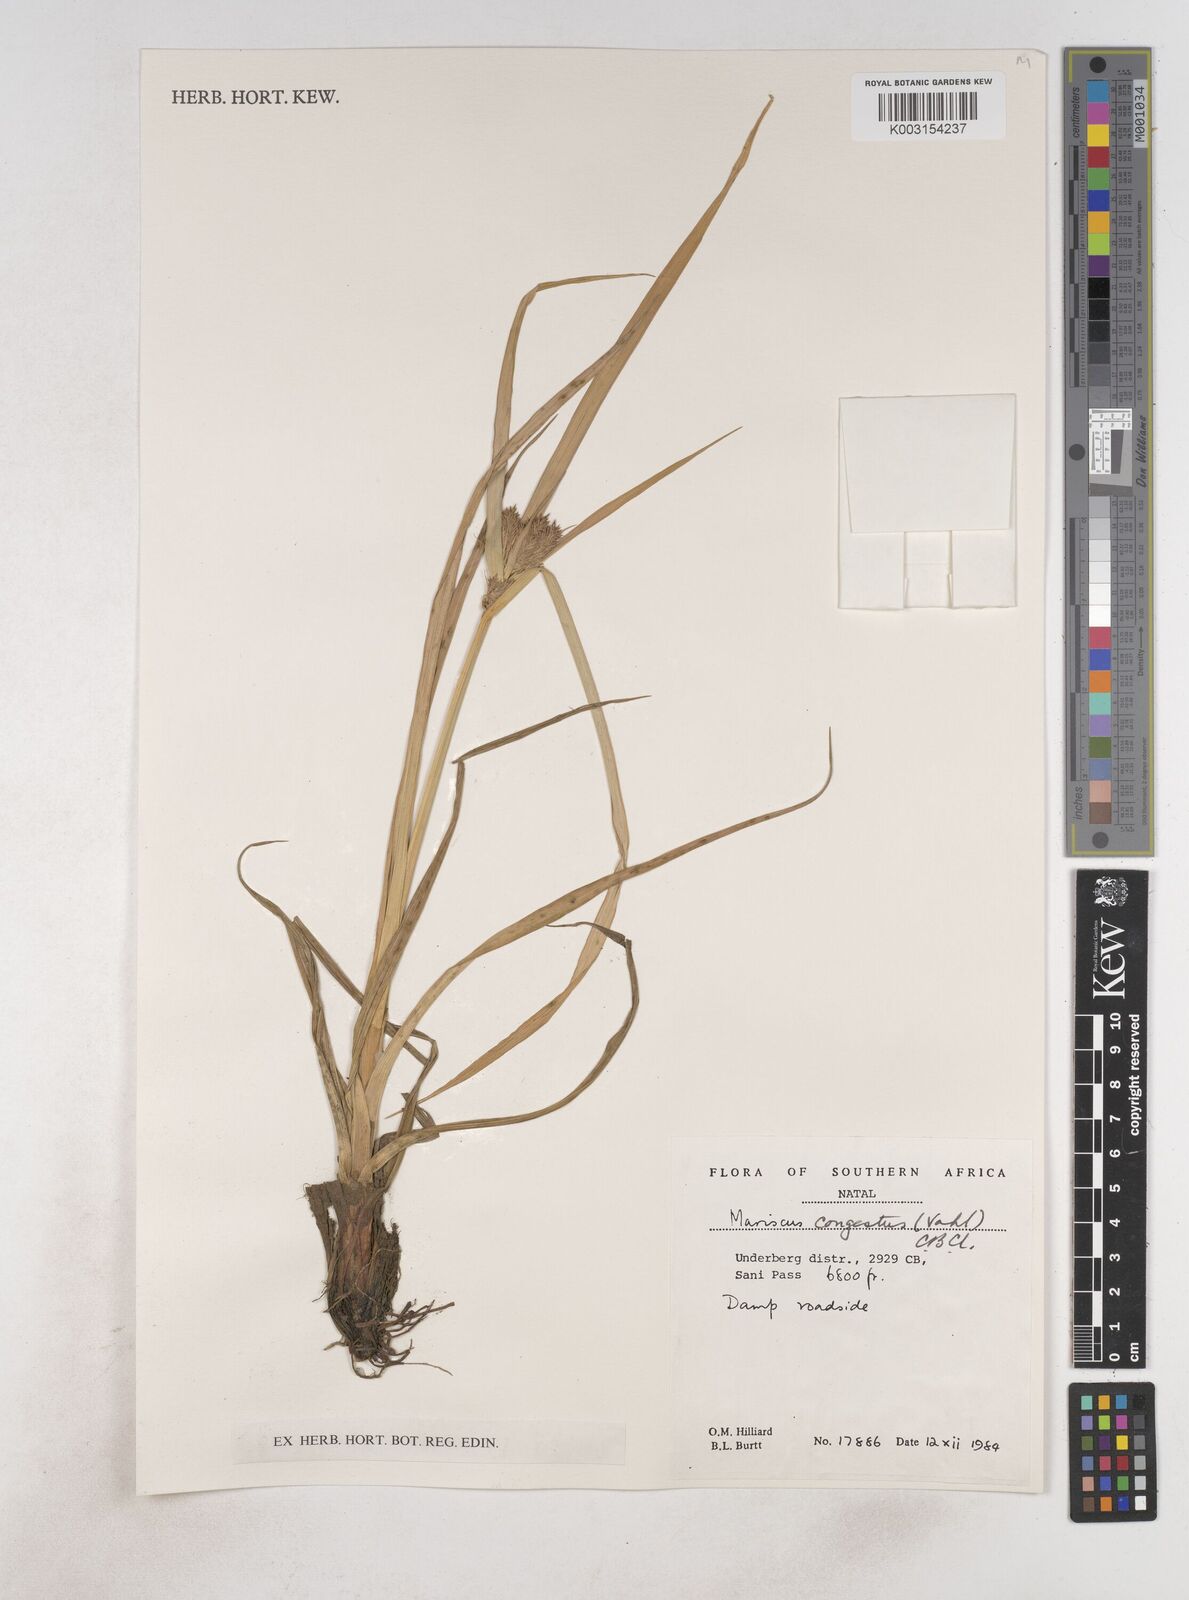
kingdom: Plantae
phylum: Tracheophyta
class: Liliopsida
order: Poales
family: Cyperaceae
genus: Cyperus
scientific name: Cyperus congestus
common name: Dense flat sedge
